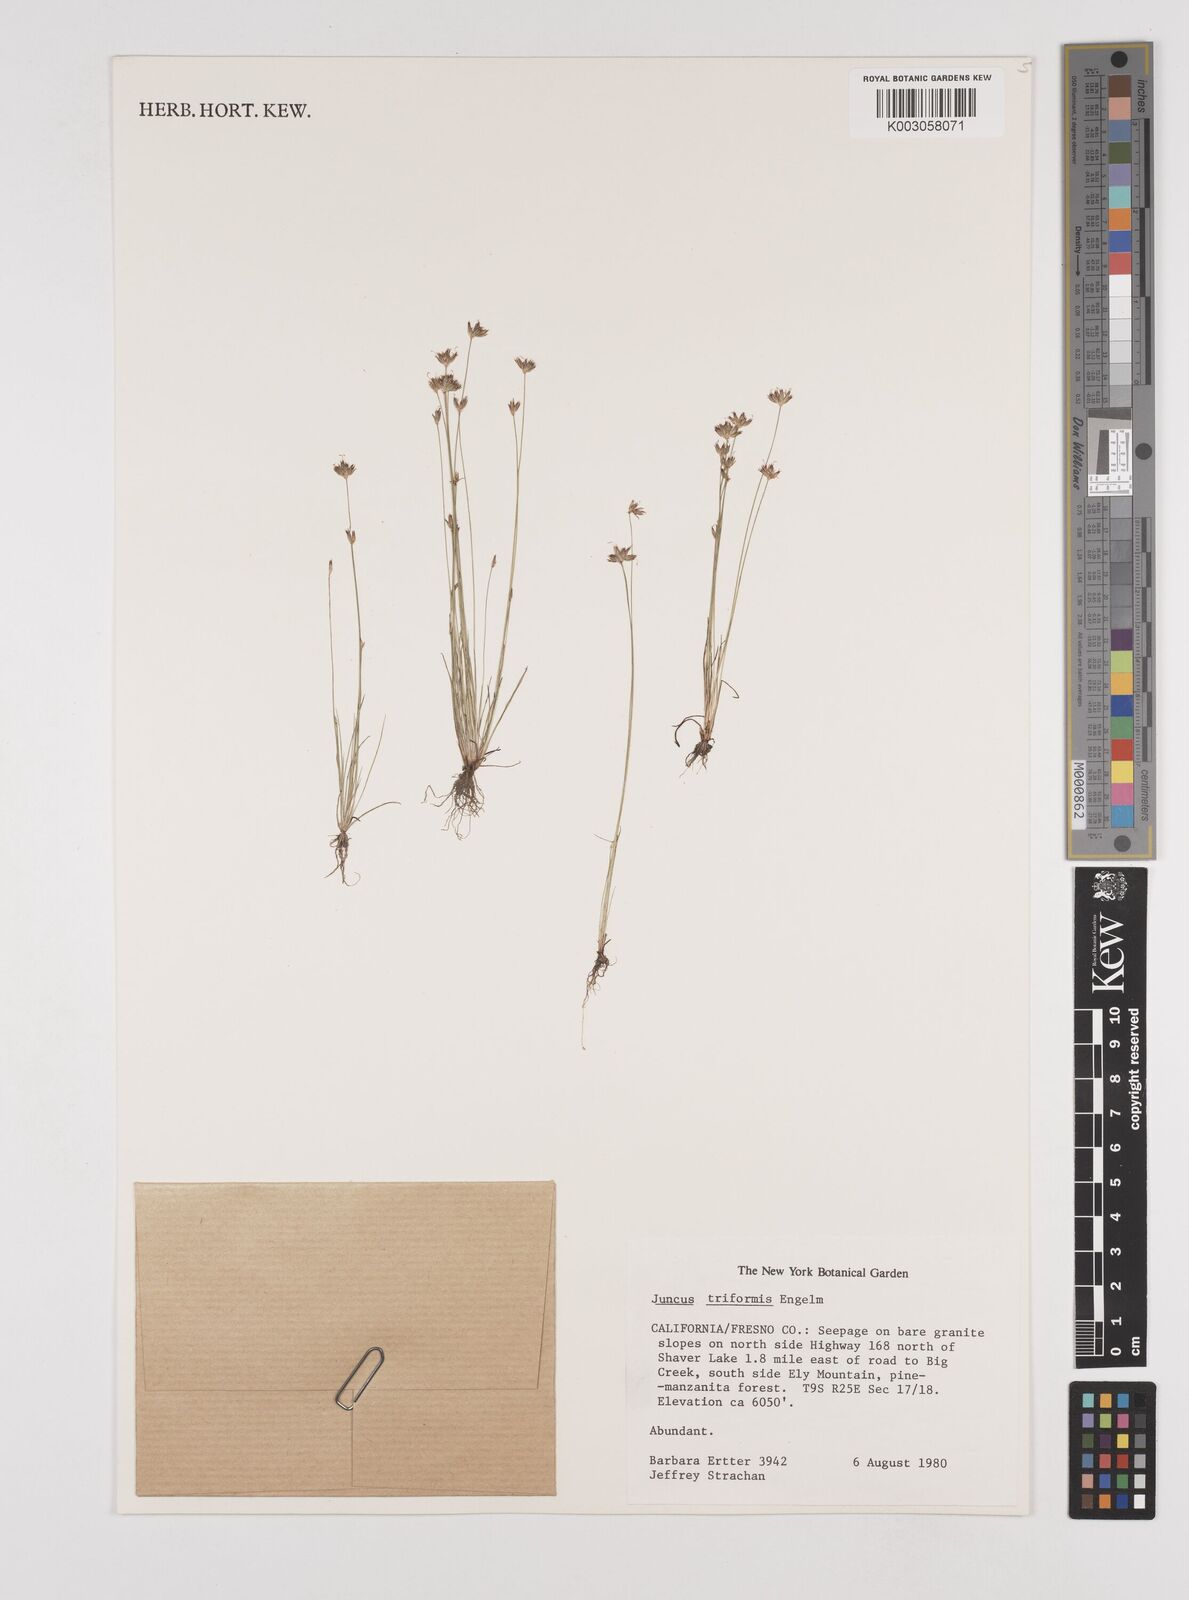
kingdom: Plantae
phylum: Tracheophyta
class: Liliopsida
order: Poales
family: Juncaceae
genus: Juncus
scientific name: Juncus triformis
